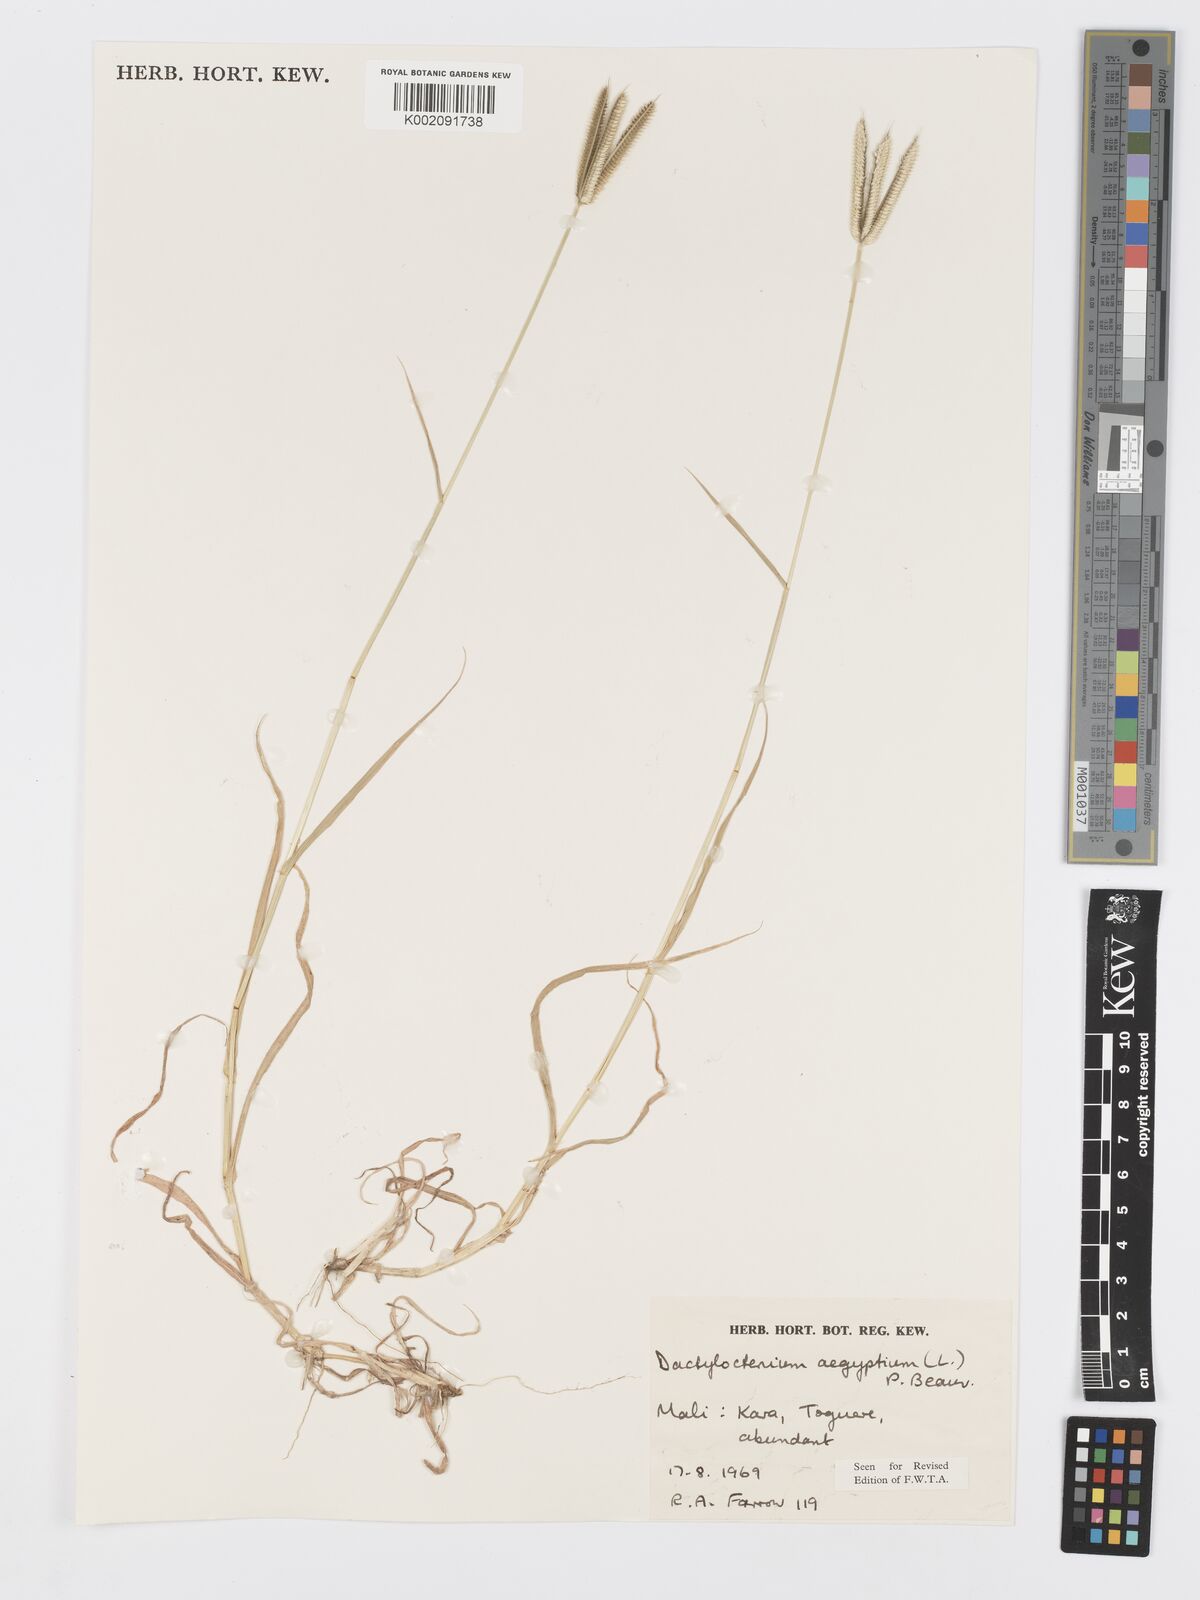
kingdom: Plantae
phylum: Tracheophyta
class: Liliopsida
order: Poales
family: Poaceae
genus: Dactyloctenium
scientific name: Dactyloctenium aegyptium
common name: Egyptian grass
